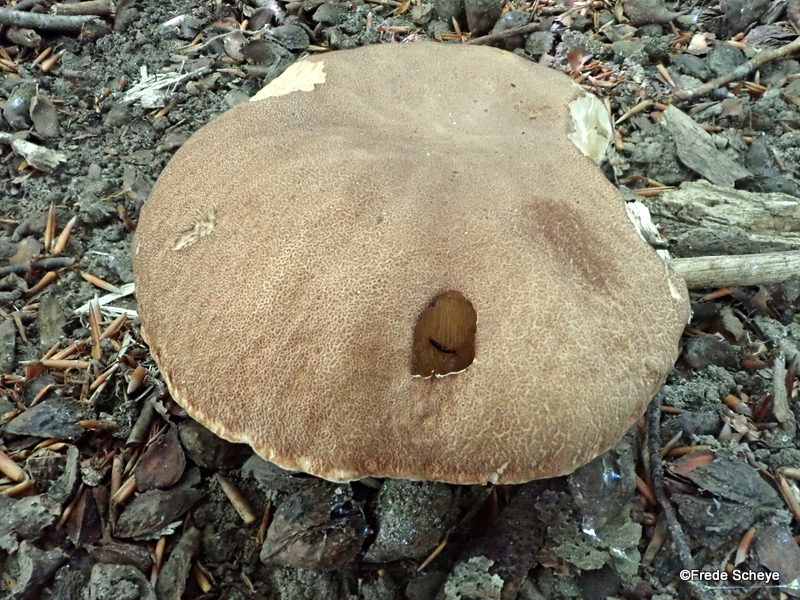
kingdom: Fungi
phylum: Basidiomycota
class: Agaricomycetes
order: Boletales
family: Boletaceae
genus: Boletus
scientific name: Boletus reticulatus
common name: sommer-rørhat
